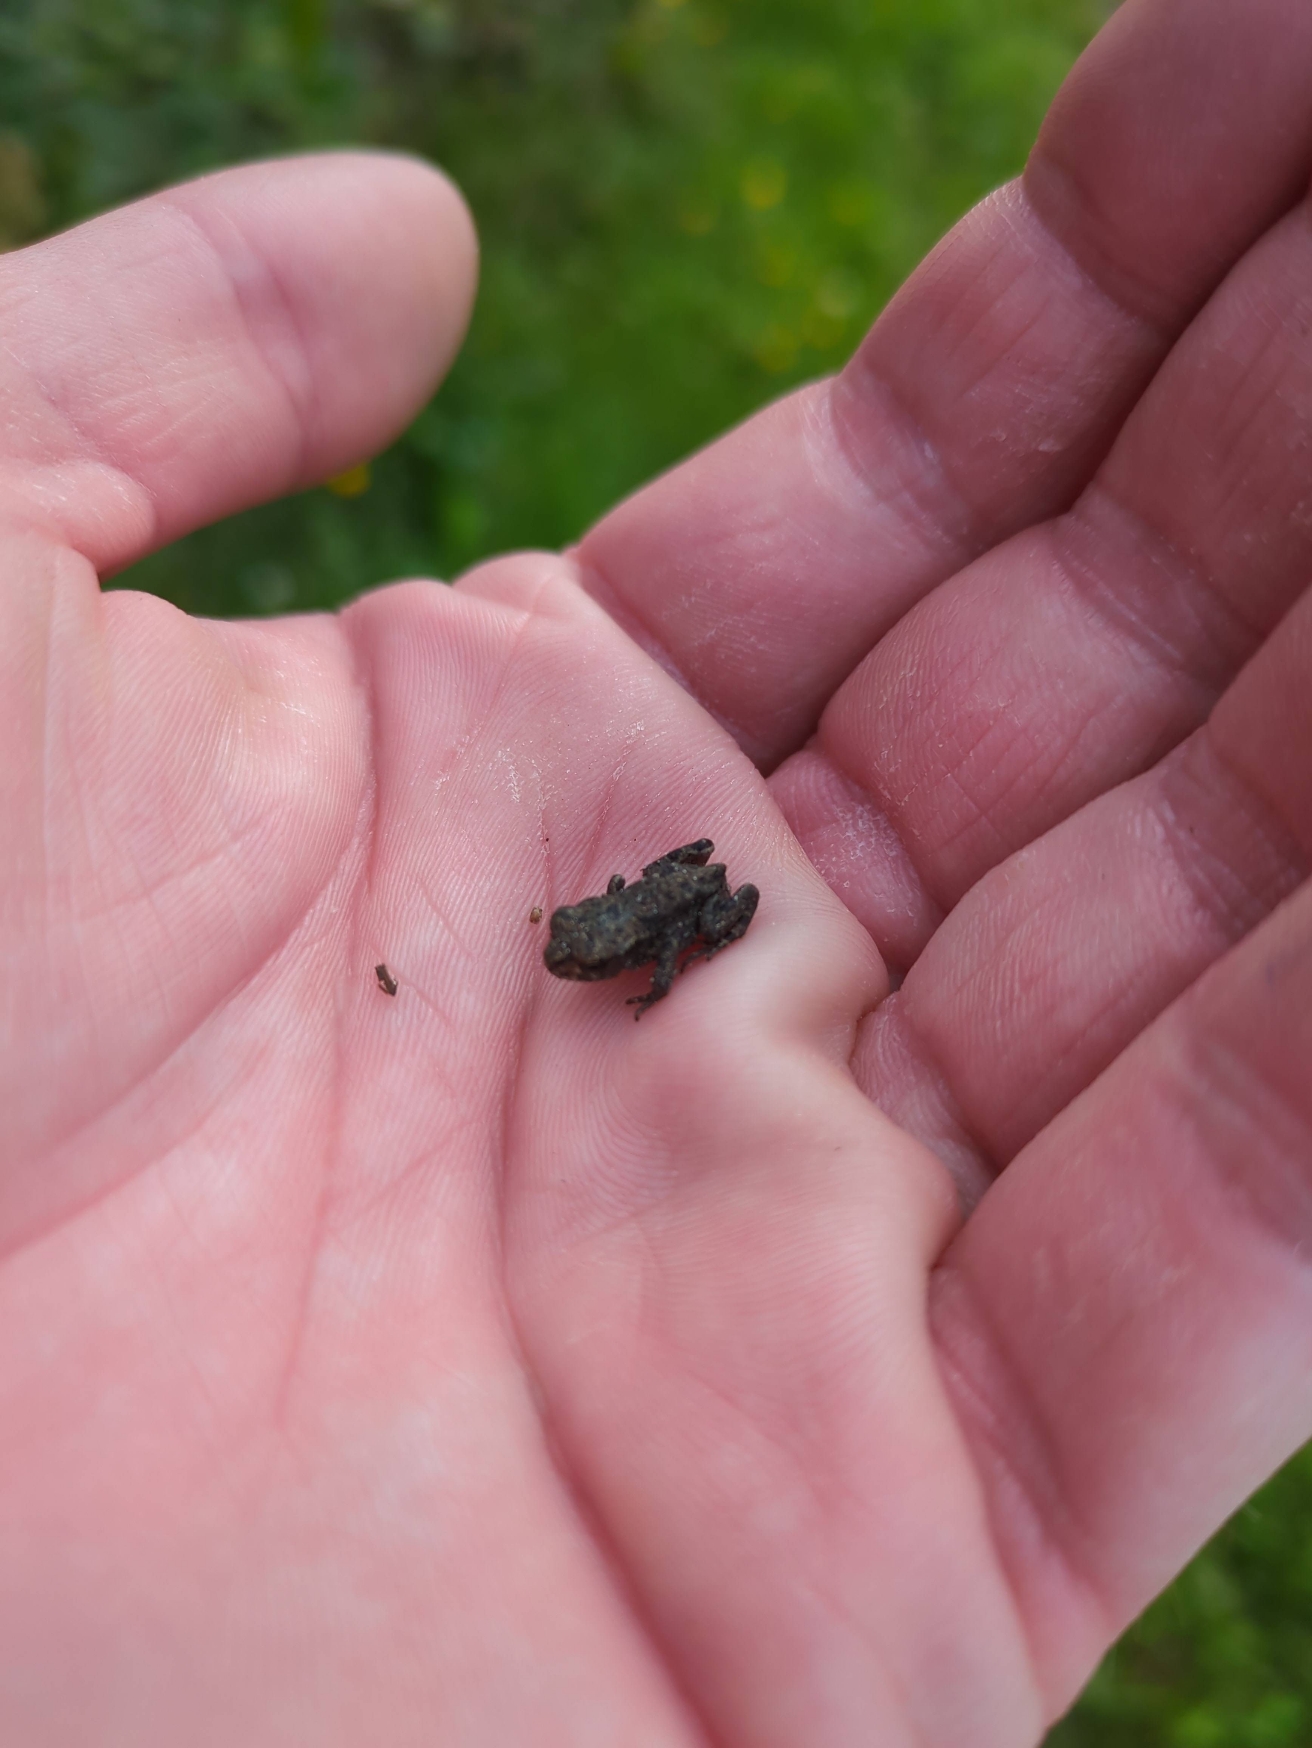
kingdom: Animalia
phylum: Chordata
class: Amphibia
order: Anura
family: Bufonidae
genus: Bufo
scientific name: Bufo bufo
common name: Skrubtudse
